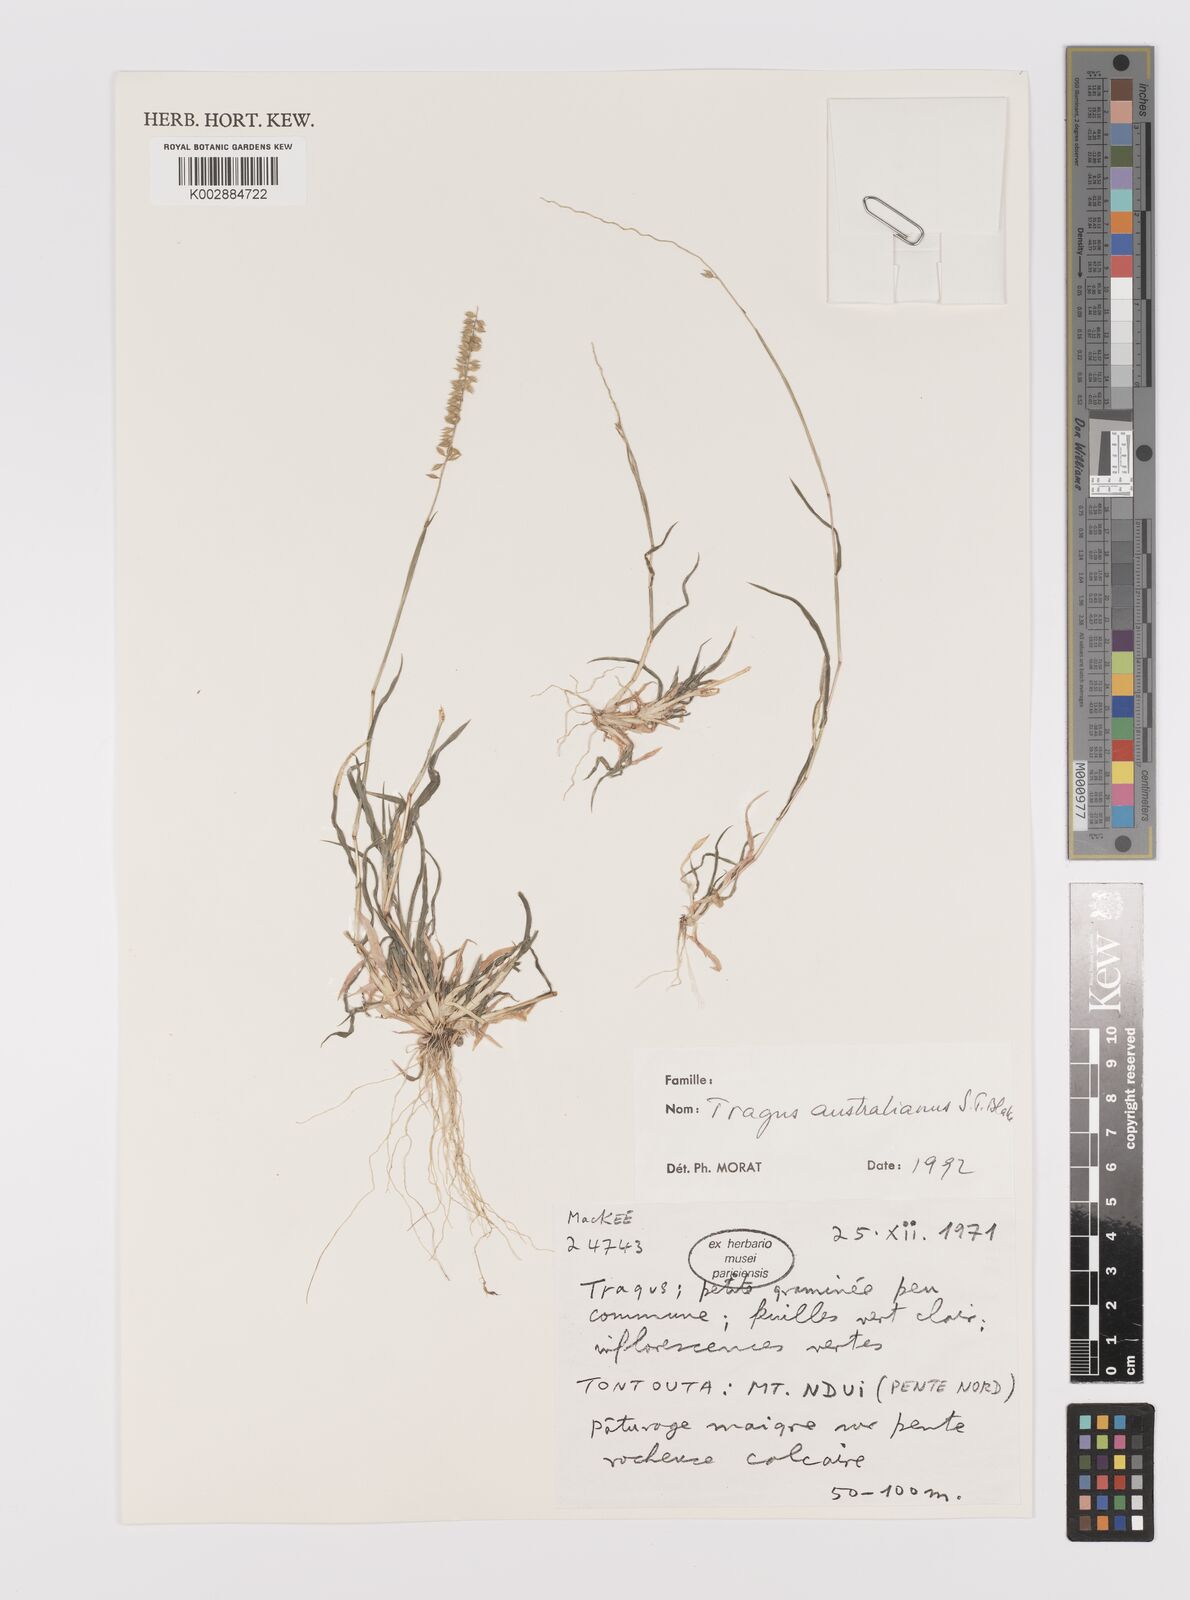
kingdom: Plantae
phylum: Tracheophyta
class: Liliopsida
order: Poales
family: Poaceae
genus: Tragus
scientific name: Tragus australianus
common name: Australian bur-grass
